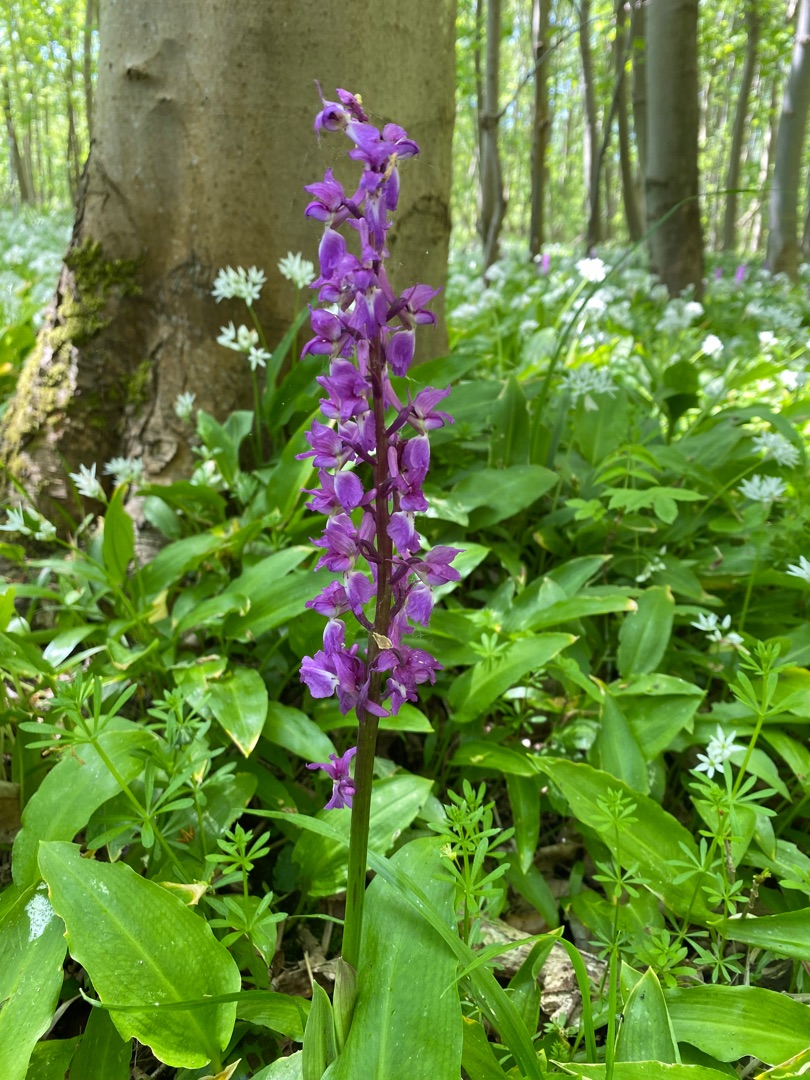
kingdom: Plantae
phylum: Tracheophyta
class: Liliopsida
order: Asparagales
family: Orchidaceae
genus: Orchis
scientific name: Orchis mascula
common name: Tyndakset gøgeurt
